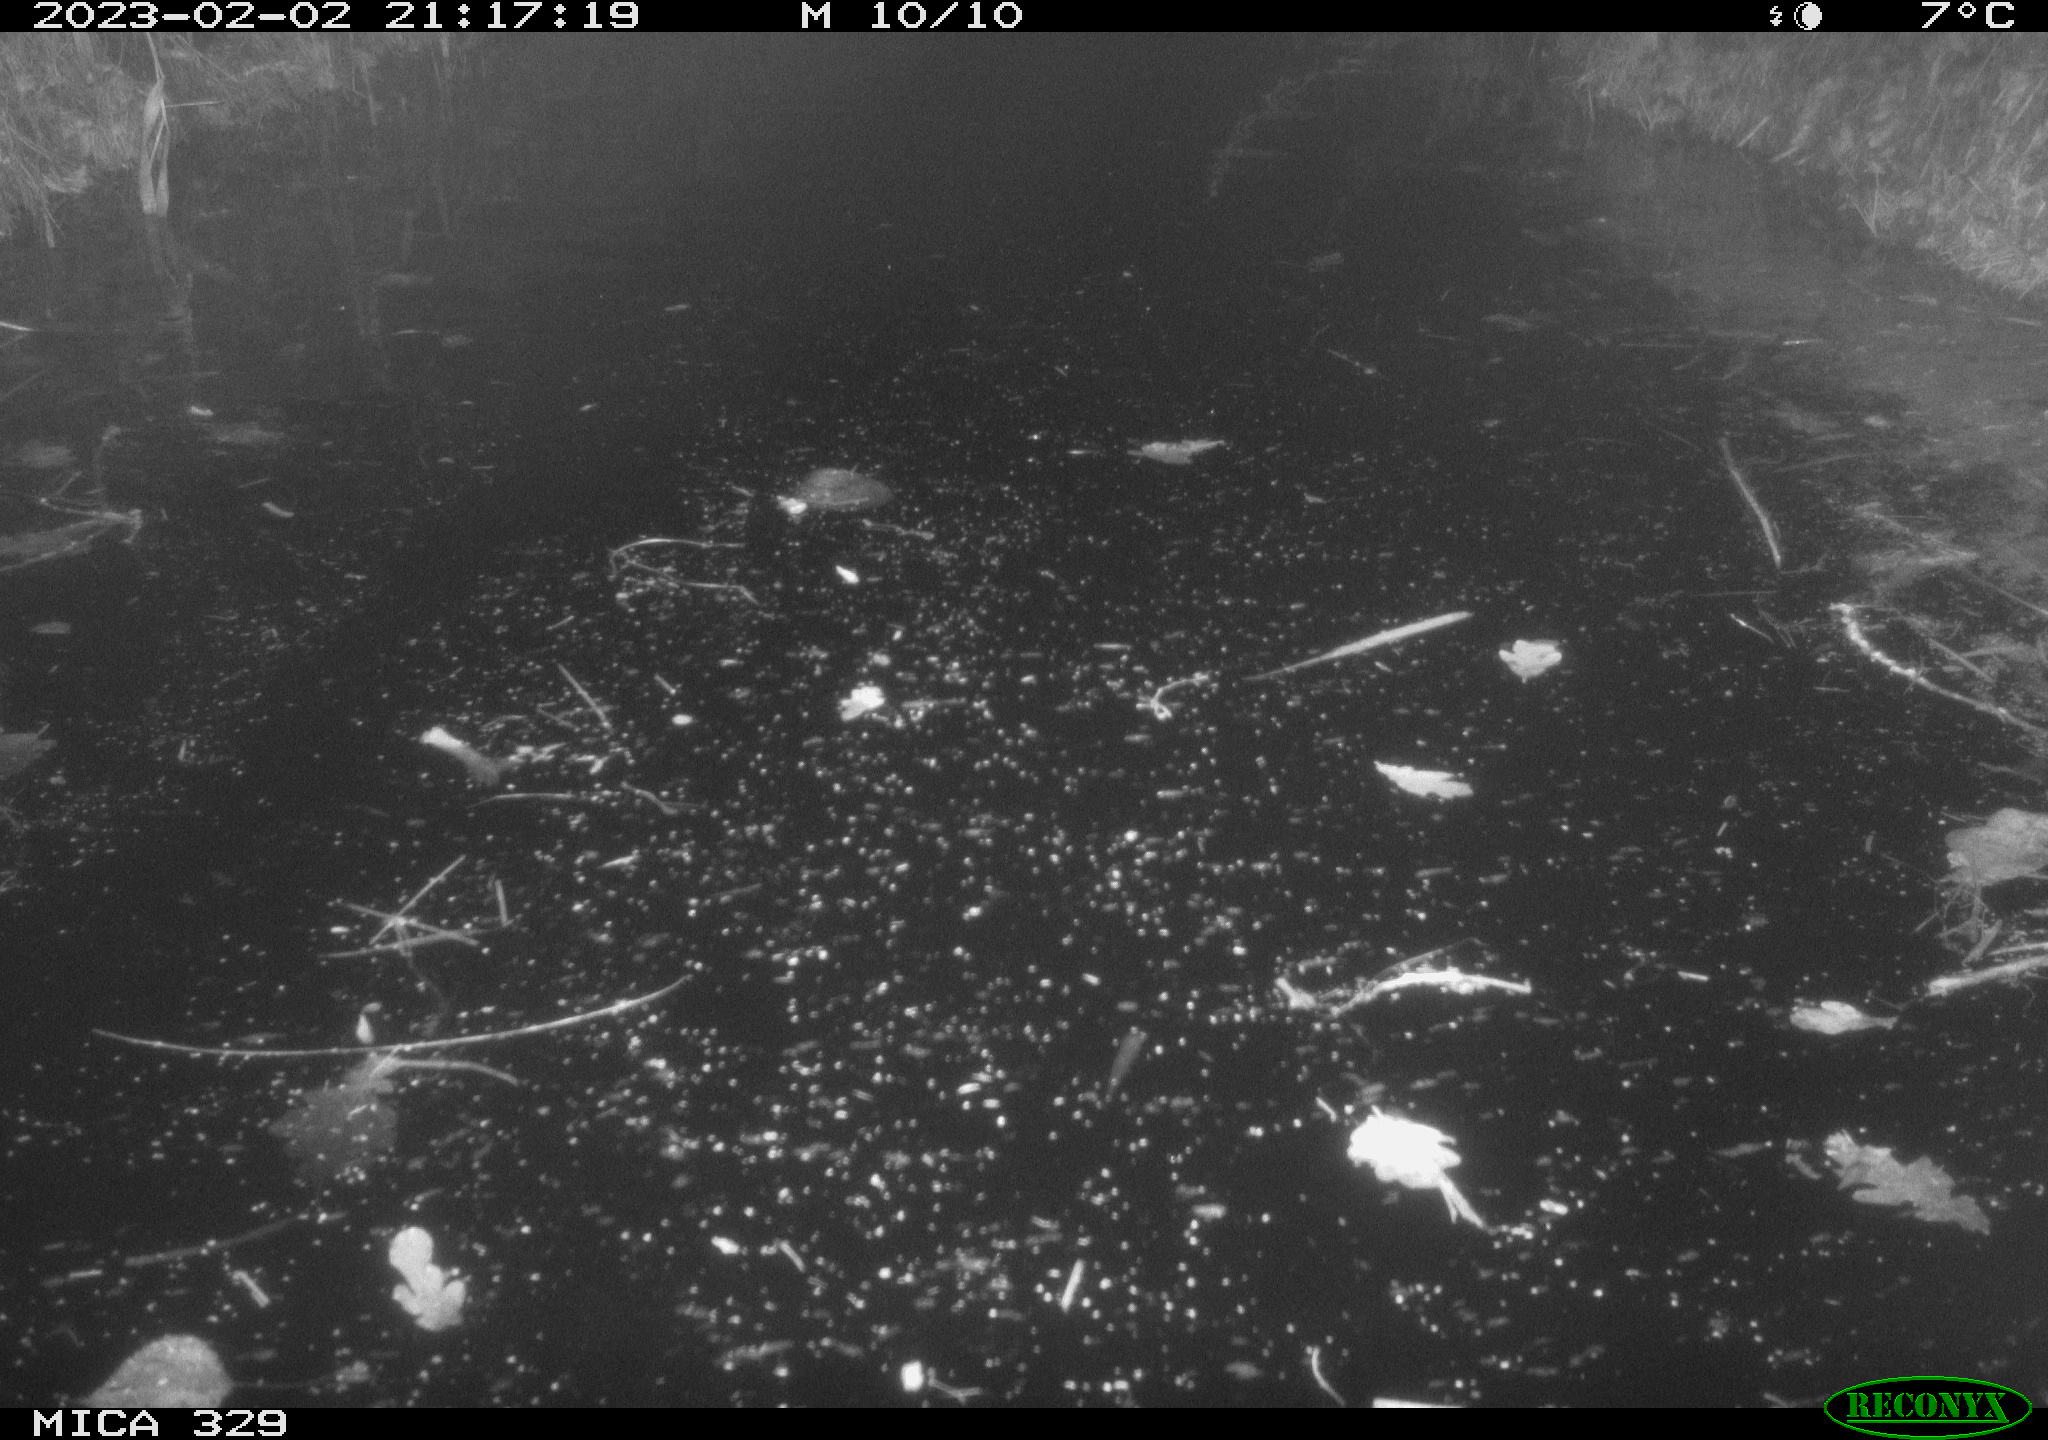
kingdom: Animalia
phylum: Chordata
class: Mammalia
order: Rodentia
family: Cricetidae
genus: Ondatra
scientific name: Ondatra zibethicus
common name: Muskrat
